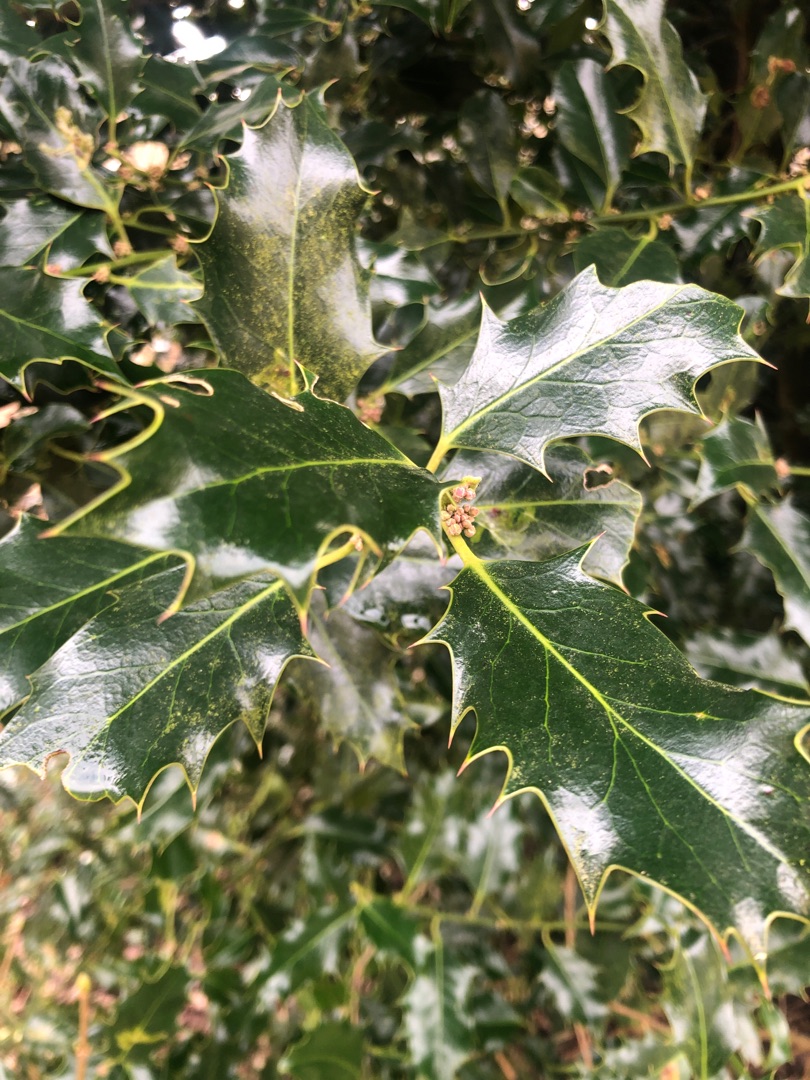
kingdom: Plantae
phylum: Tracheophyta
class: Magnoliopsida
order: Aquifoliales
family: Aquifoliaceae
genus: Ilex
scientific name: Ilex aquifolium
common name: Kristtorn
